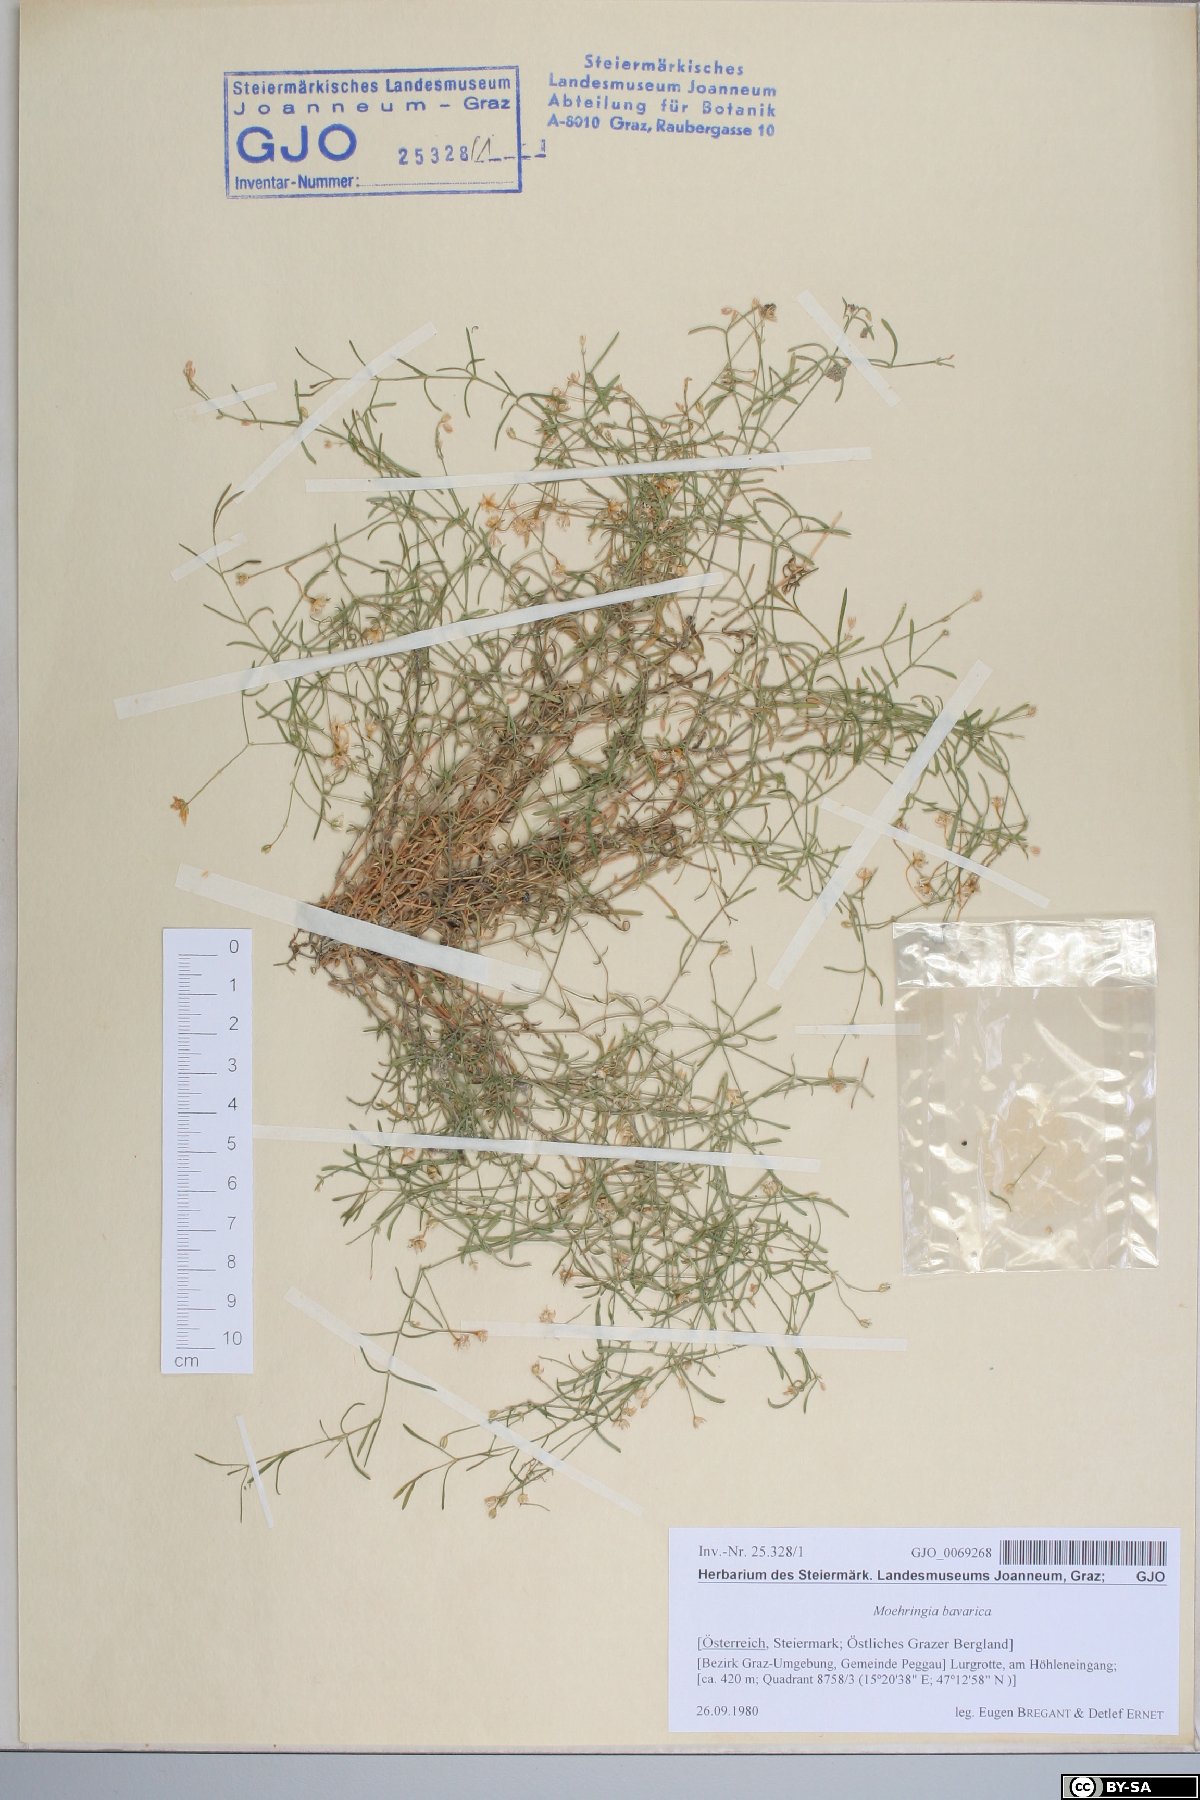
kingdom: Plantae
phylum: Tracheophyta
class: Magnoliopsida
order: Caryophyllales
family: Caryophyllaceae
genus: Moehringia
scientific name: Moehringia bavarica
